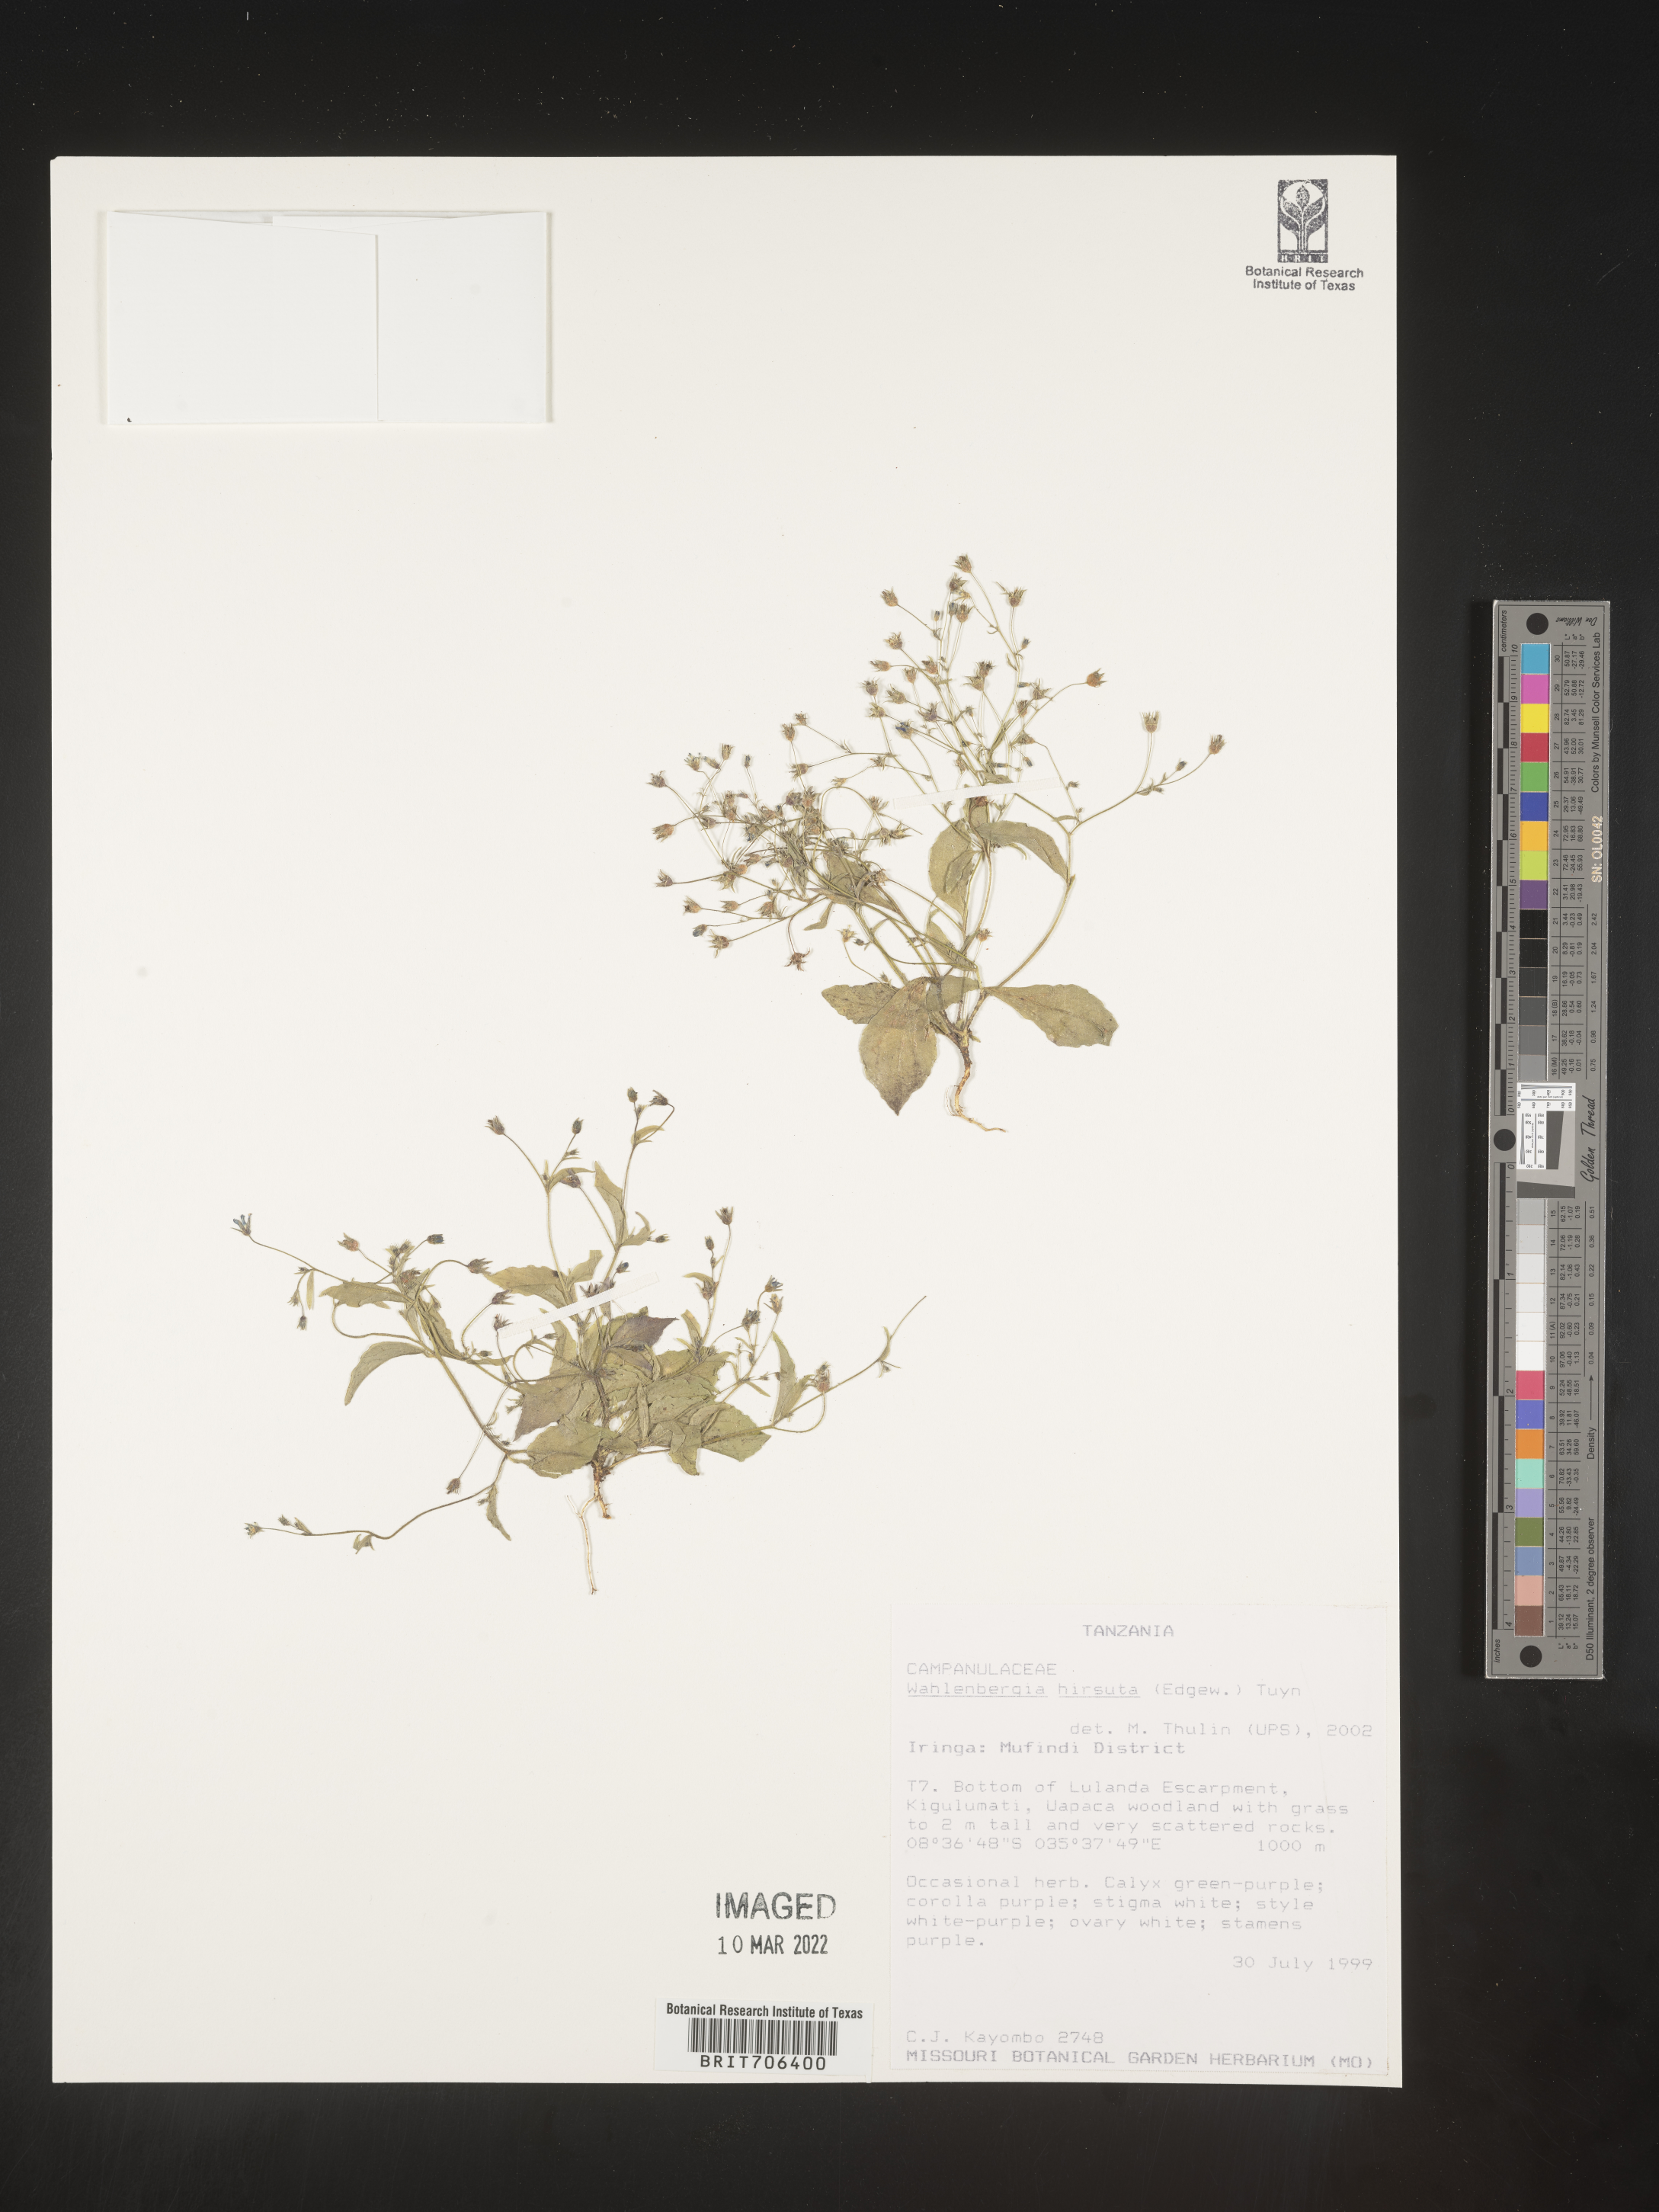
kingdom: Plantae
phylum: Tracheophyta
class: Magnoliopsida
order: Asterales
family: Campanulaceae
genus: Wahlenbergia
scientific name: Wahlenbergia
